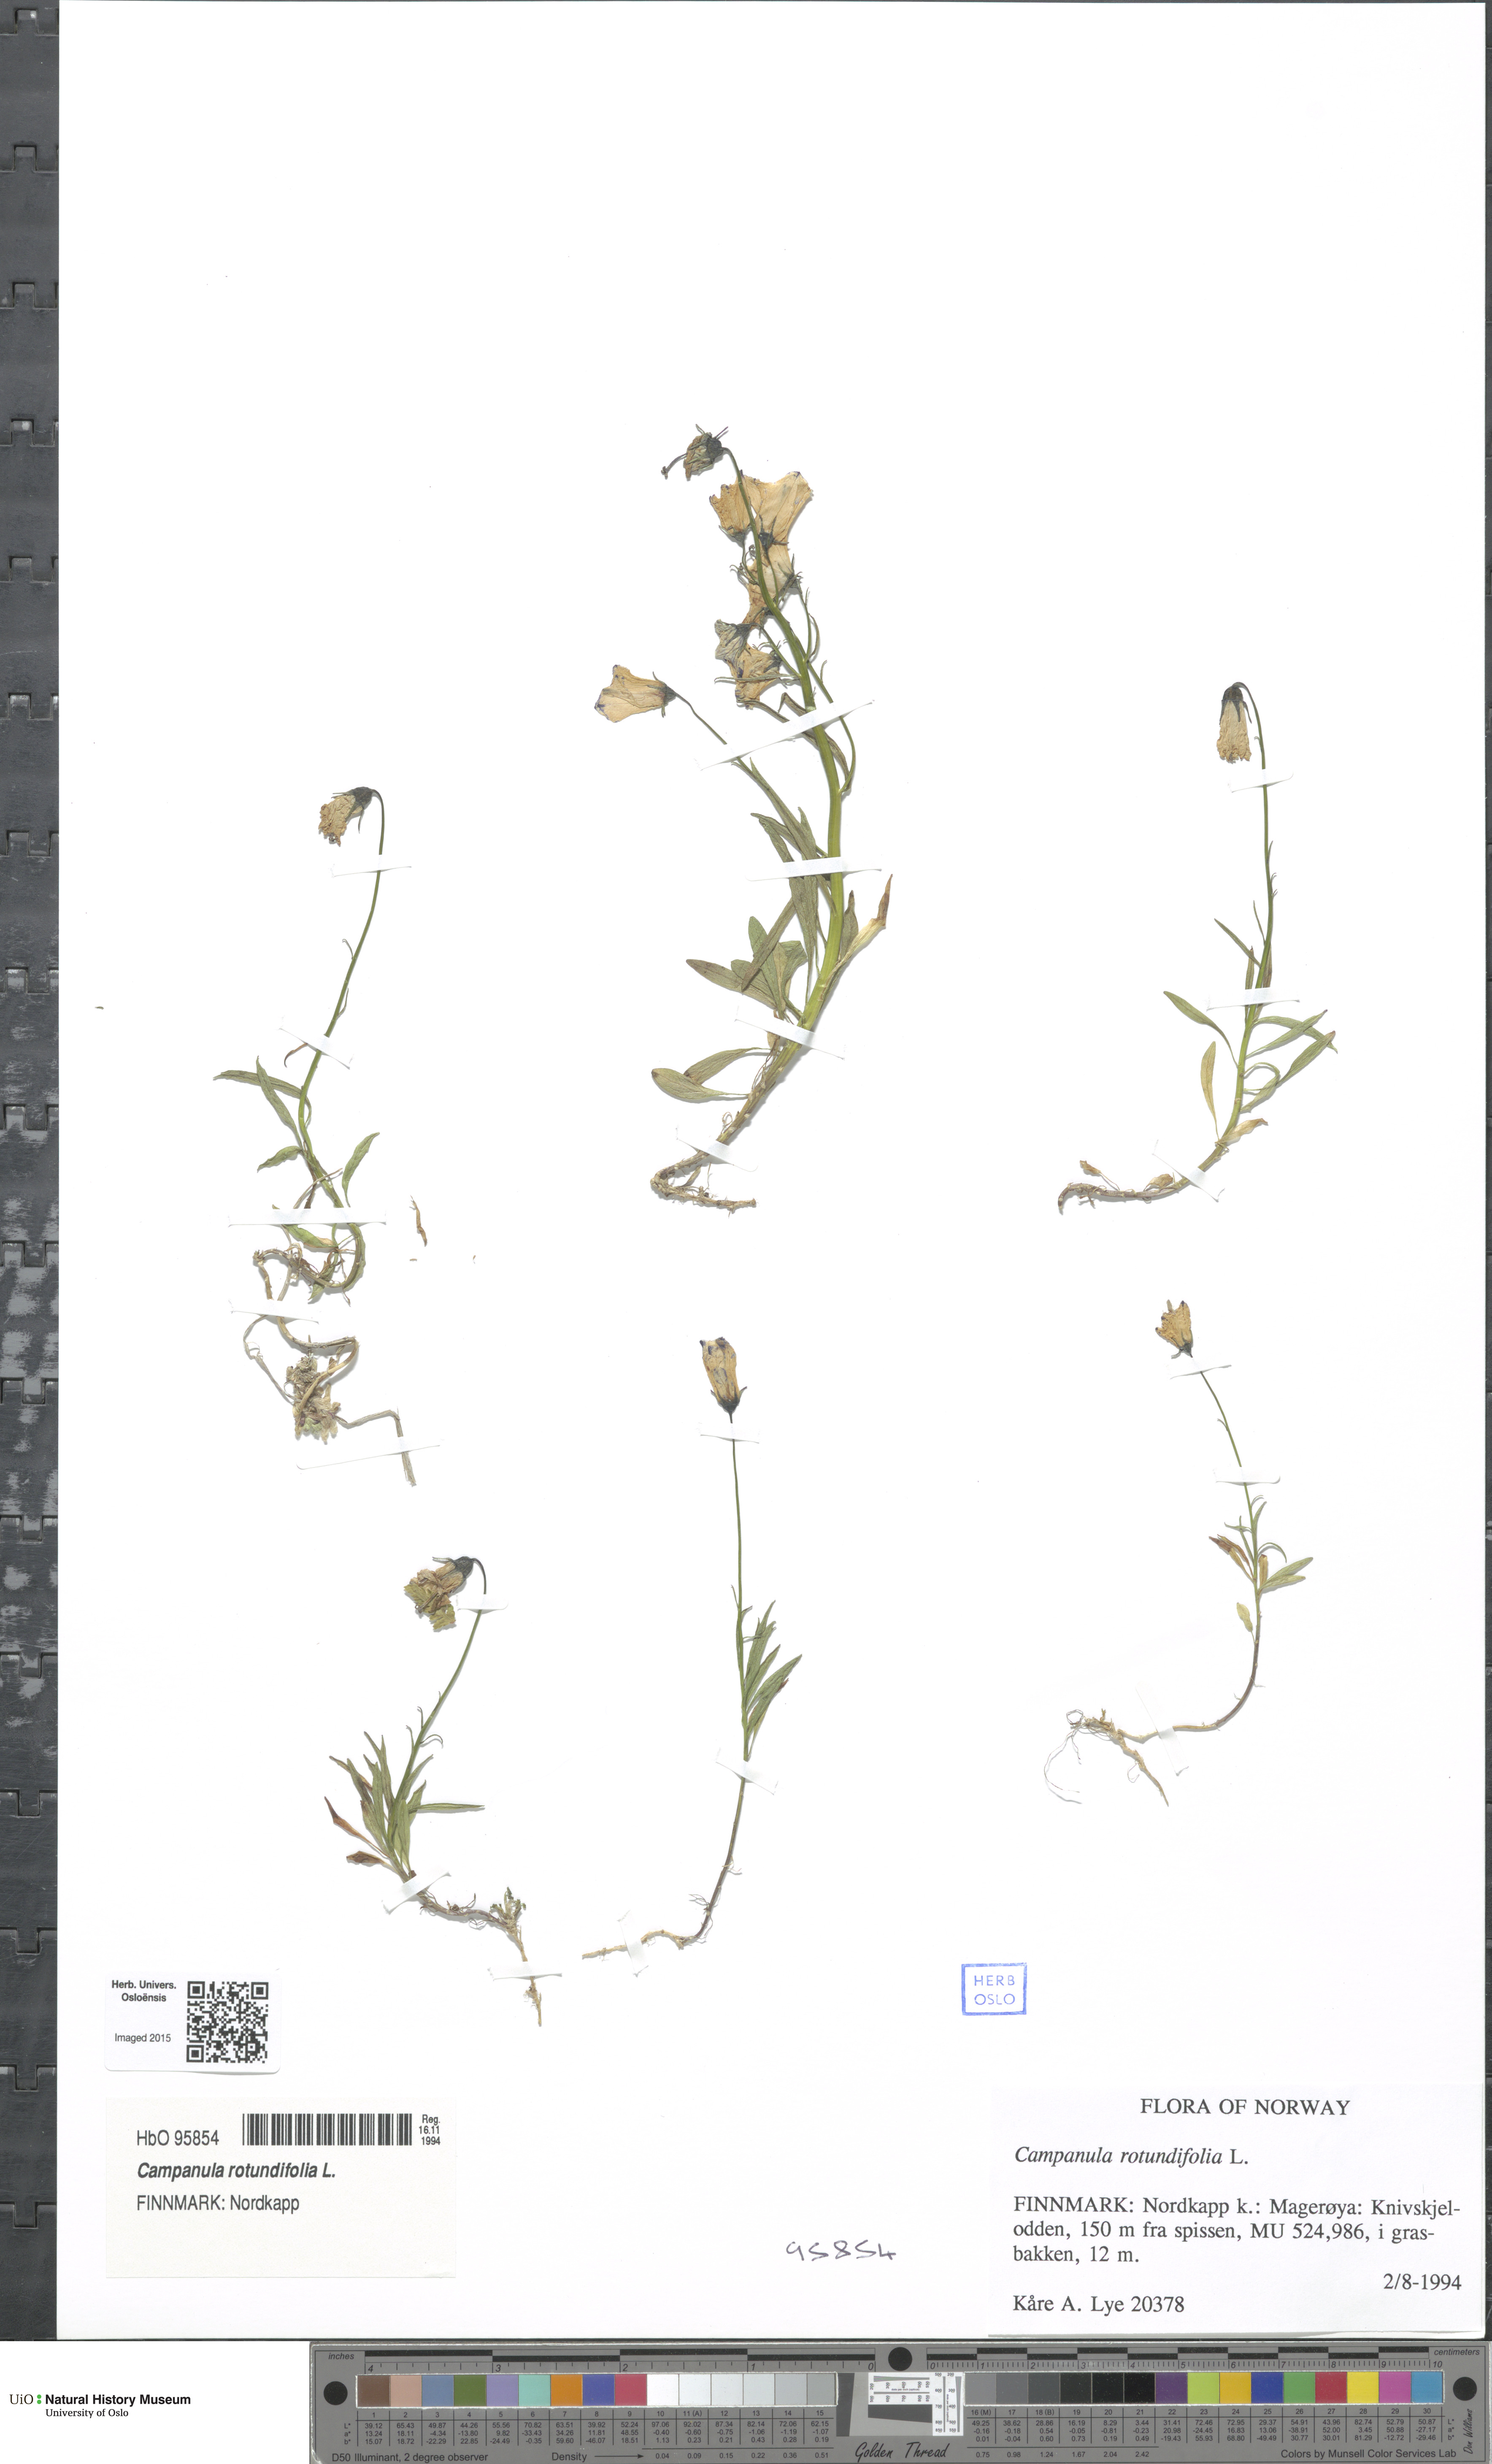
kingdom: Plantae
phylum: Tracheophyta
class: Magnoliopsida
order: Asterales
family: Campanulaceae
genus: Campanula
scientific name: Campanula rotundifolia
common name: Harebell
